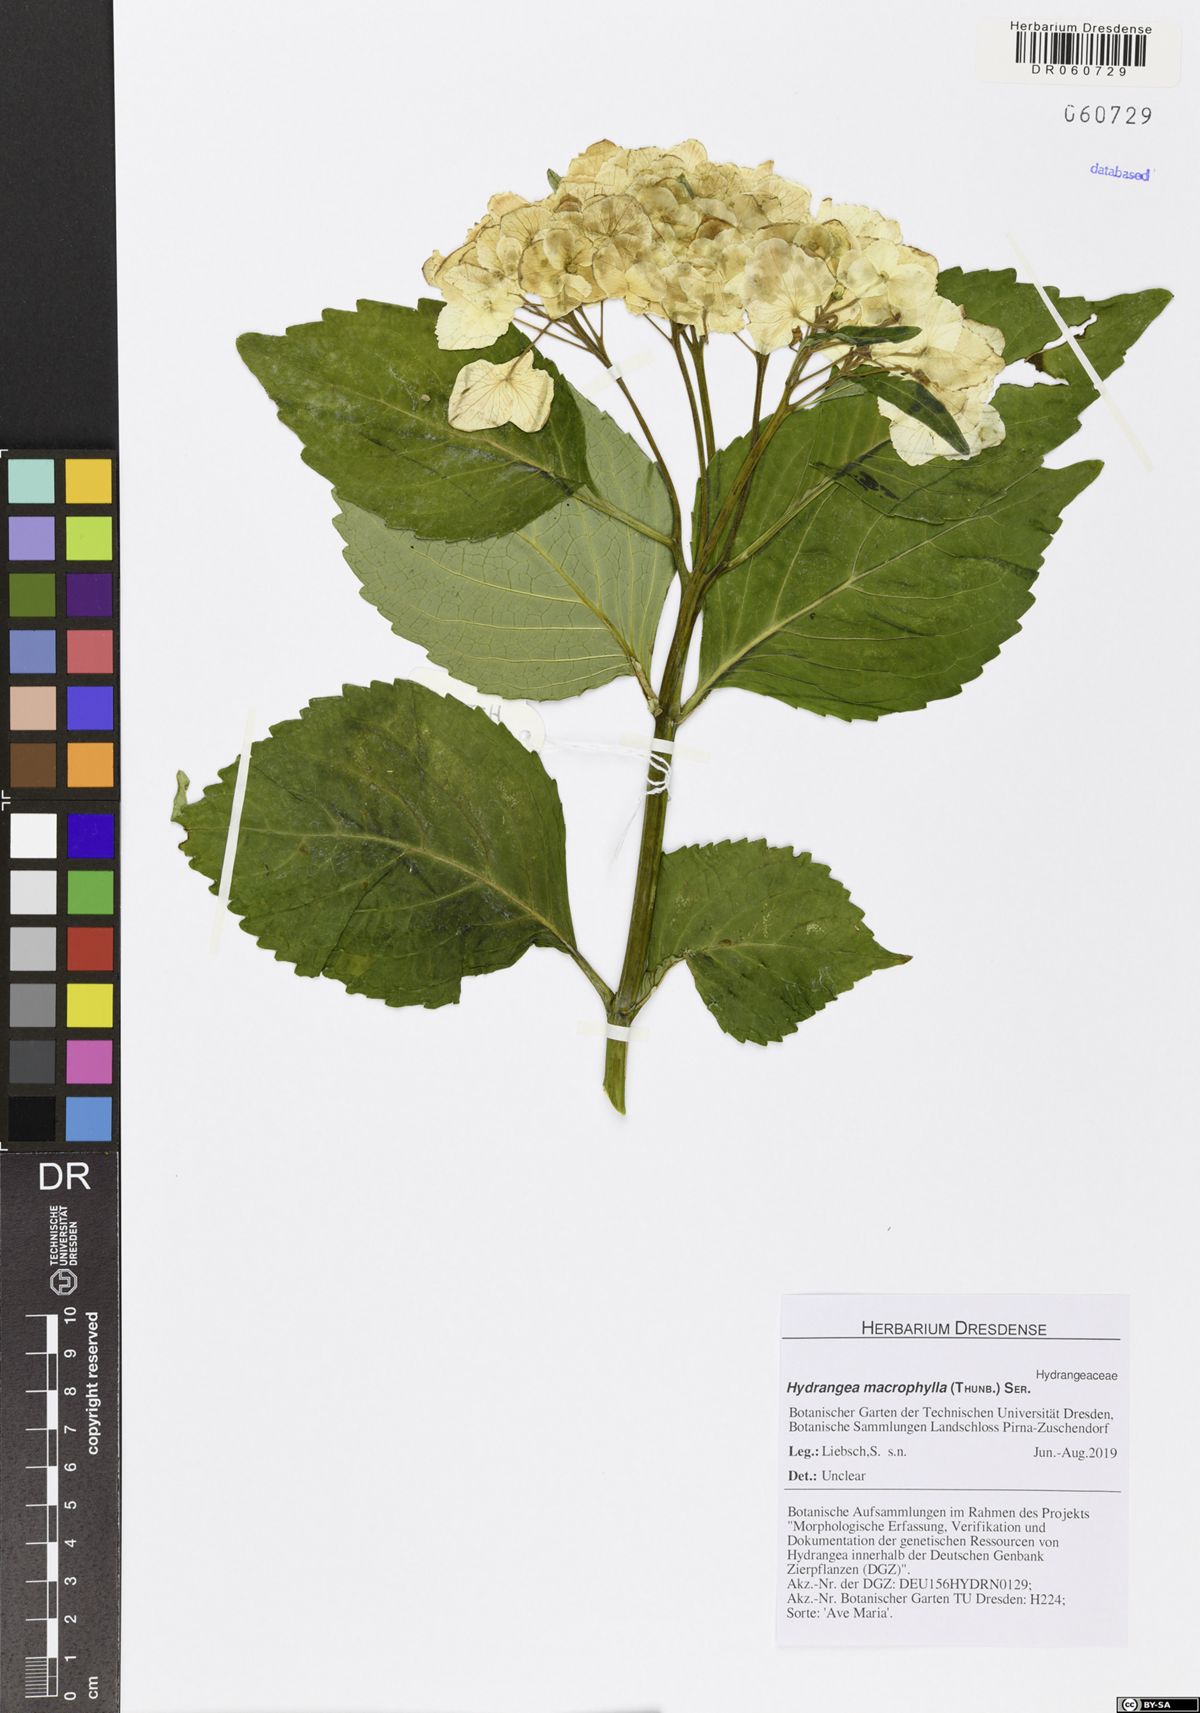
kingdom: Plantae
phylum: Tracheophyta
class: Magnoliopsida
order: Cornales
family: Hydrangeaceae
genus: Hydrangea
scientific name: Hydrangea macrophylla
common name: Hydrangea
